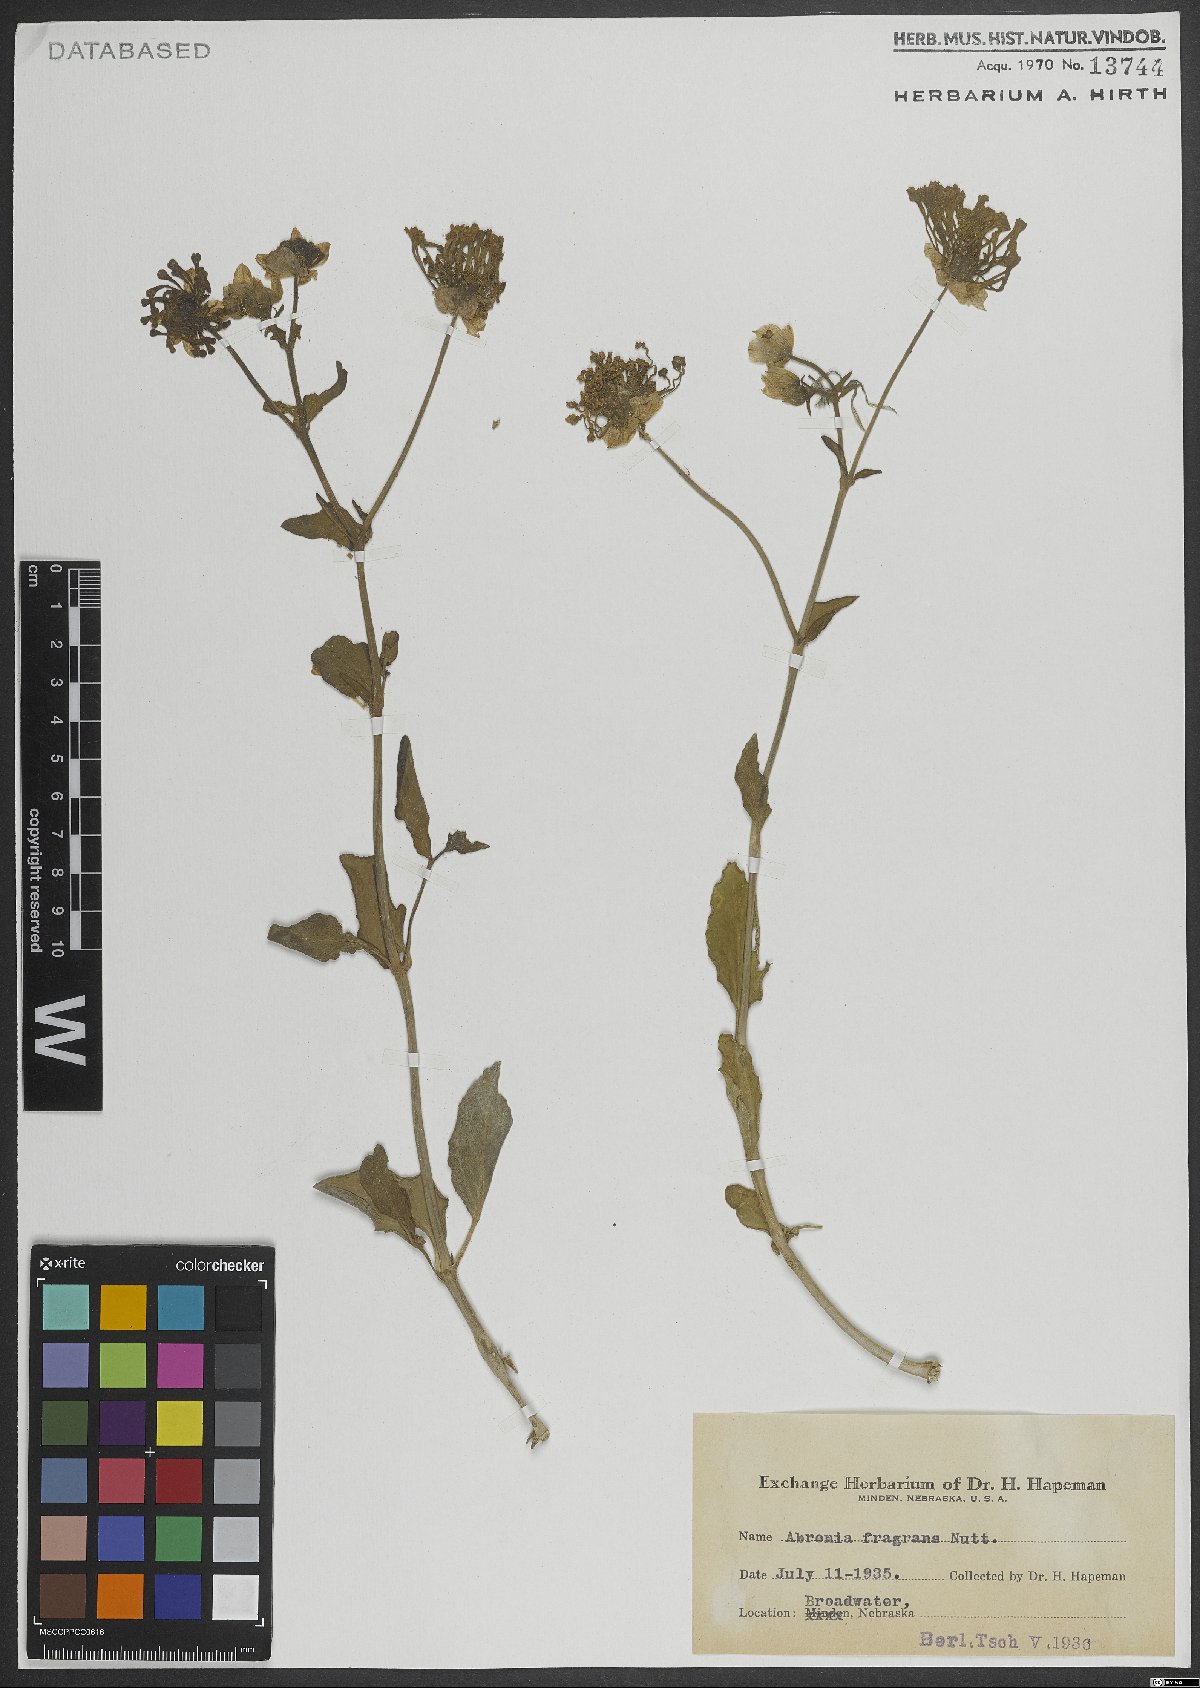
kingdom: Plantae
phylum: Tracheophyta
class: Magnoliopsida
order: Caryophyllales
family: Nyctaginaceae
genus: Abronia
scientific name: Abronia fragrans
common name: Fragrant sand-verbena
